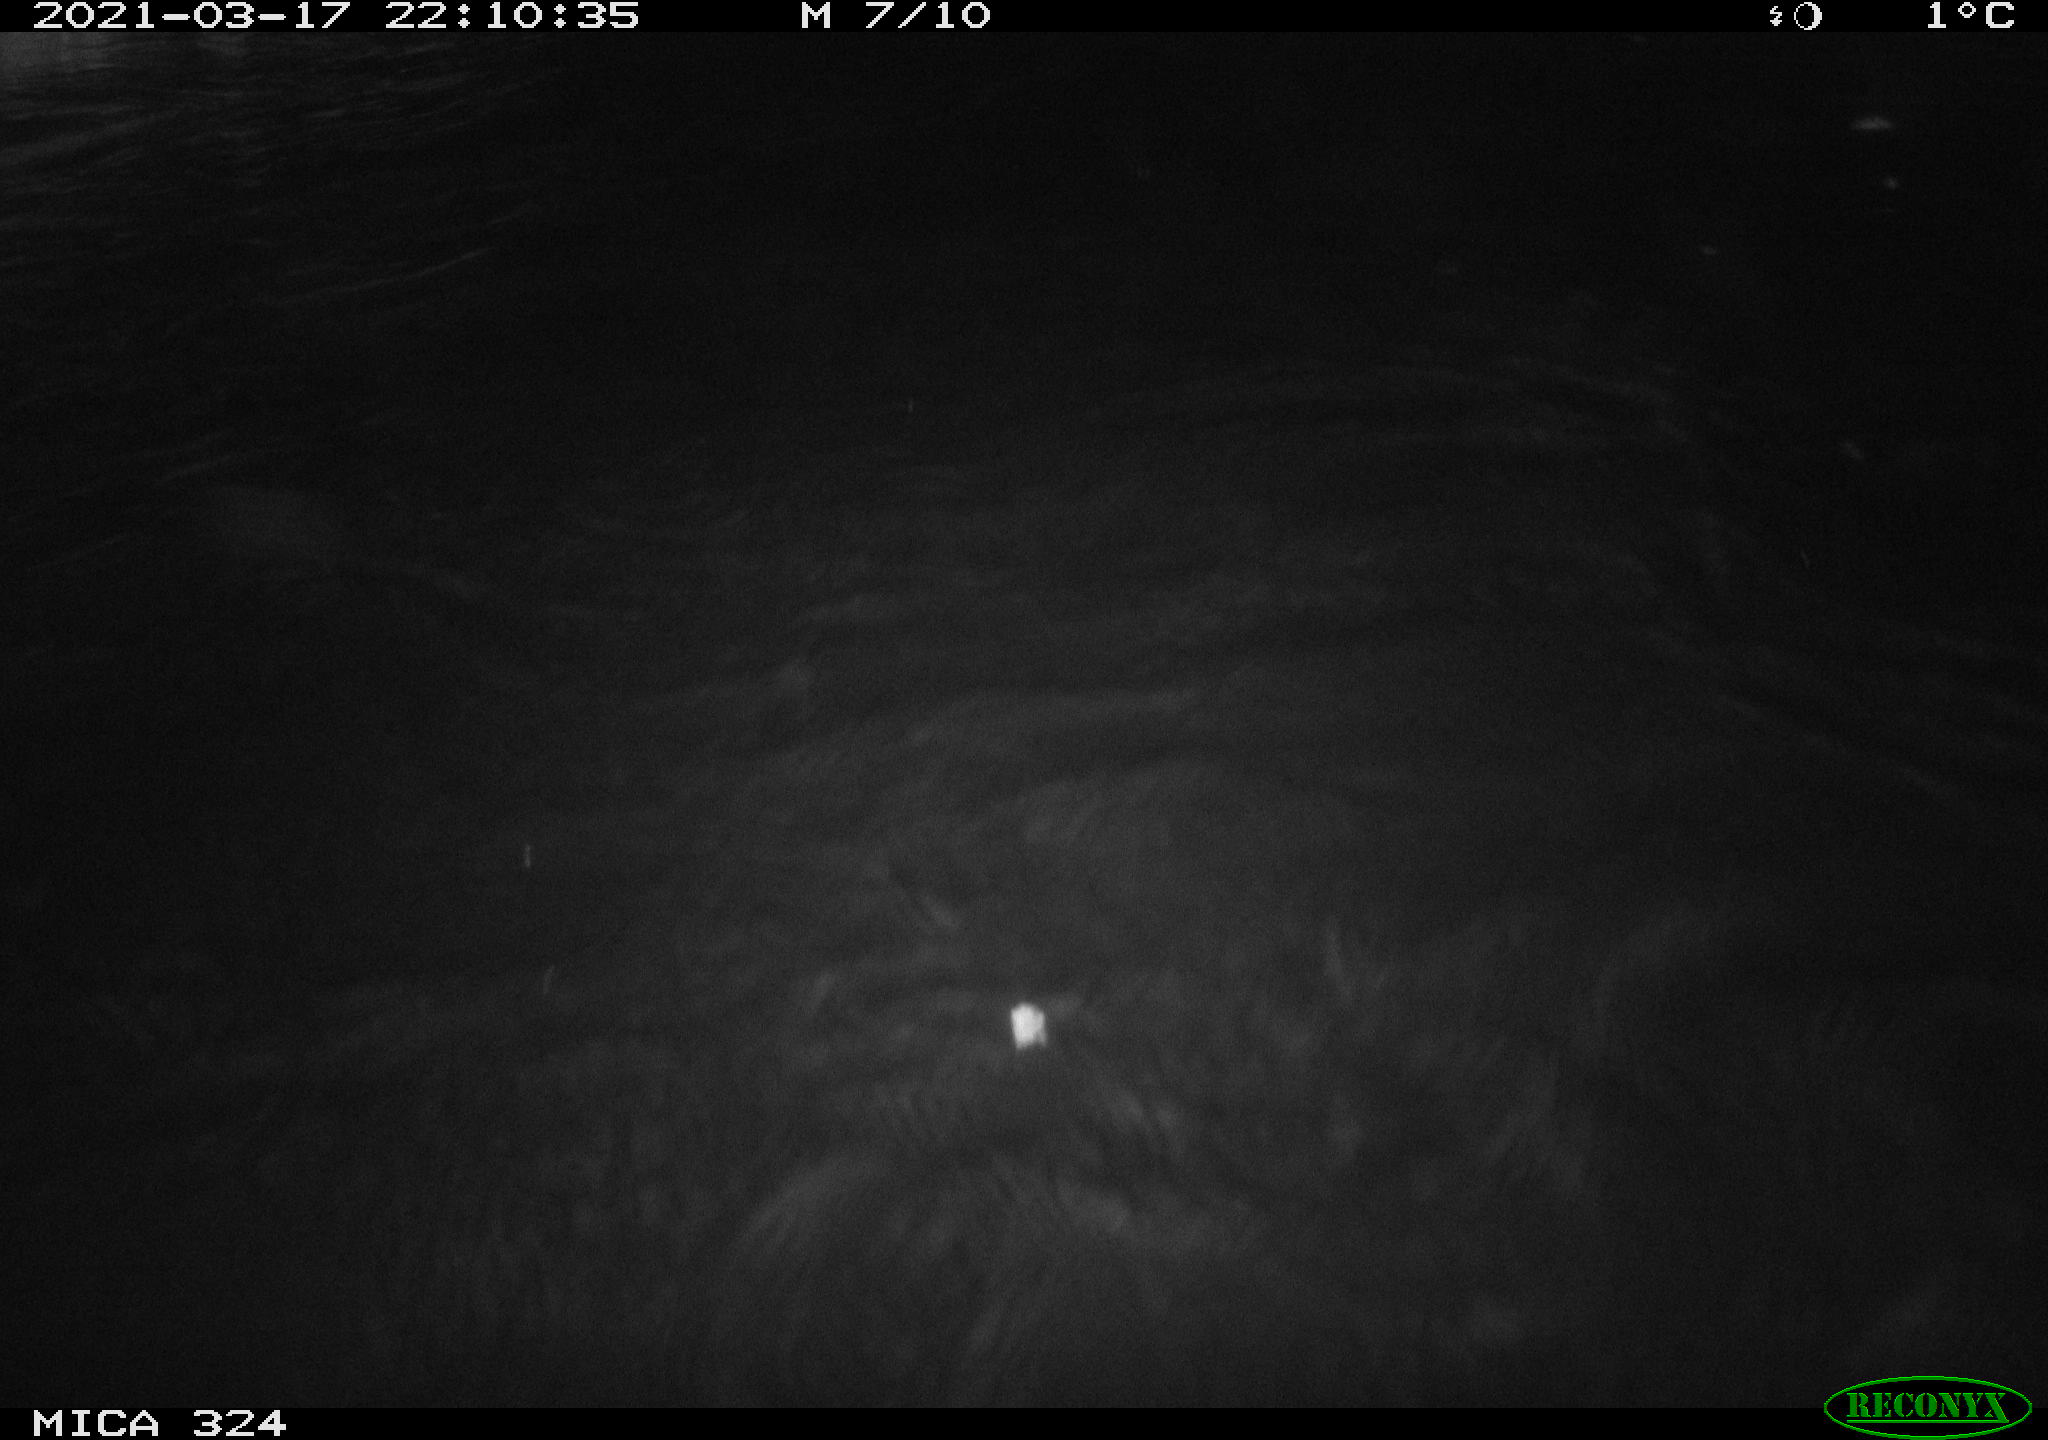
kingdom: Animalia
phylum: Chordata
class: Mammalia
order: Rodentia
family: Cricetidae
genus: Ondatra
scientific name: Ondatra zibethicus
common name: Muskrat
